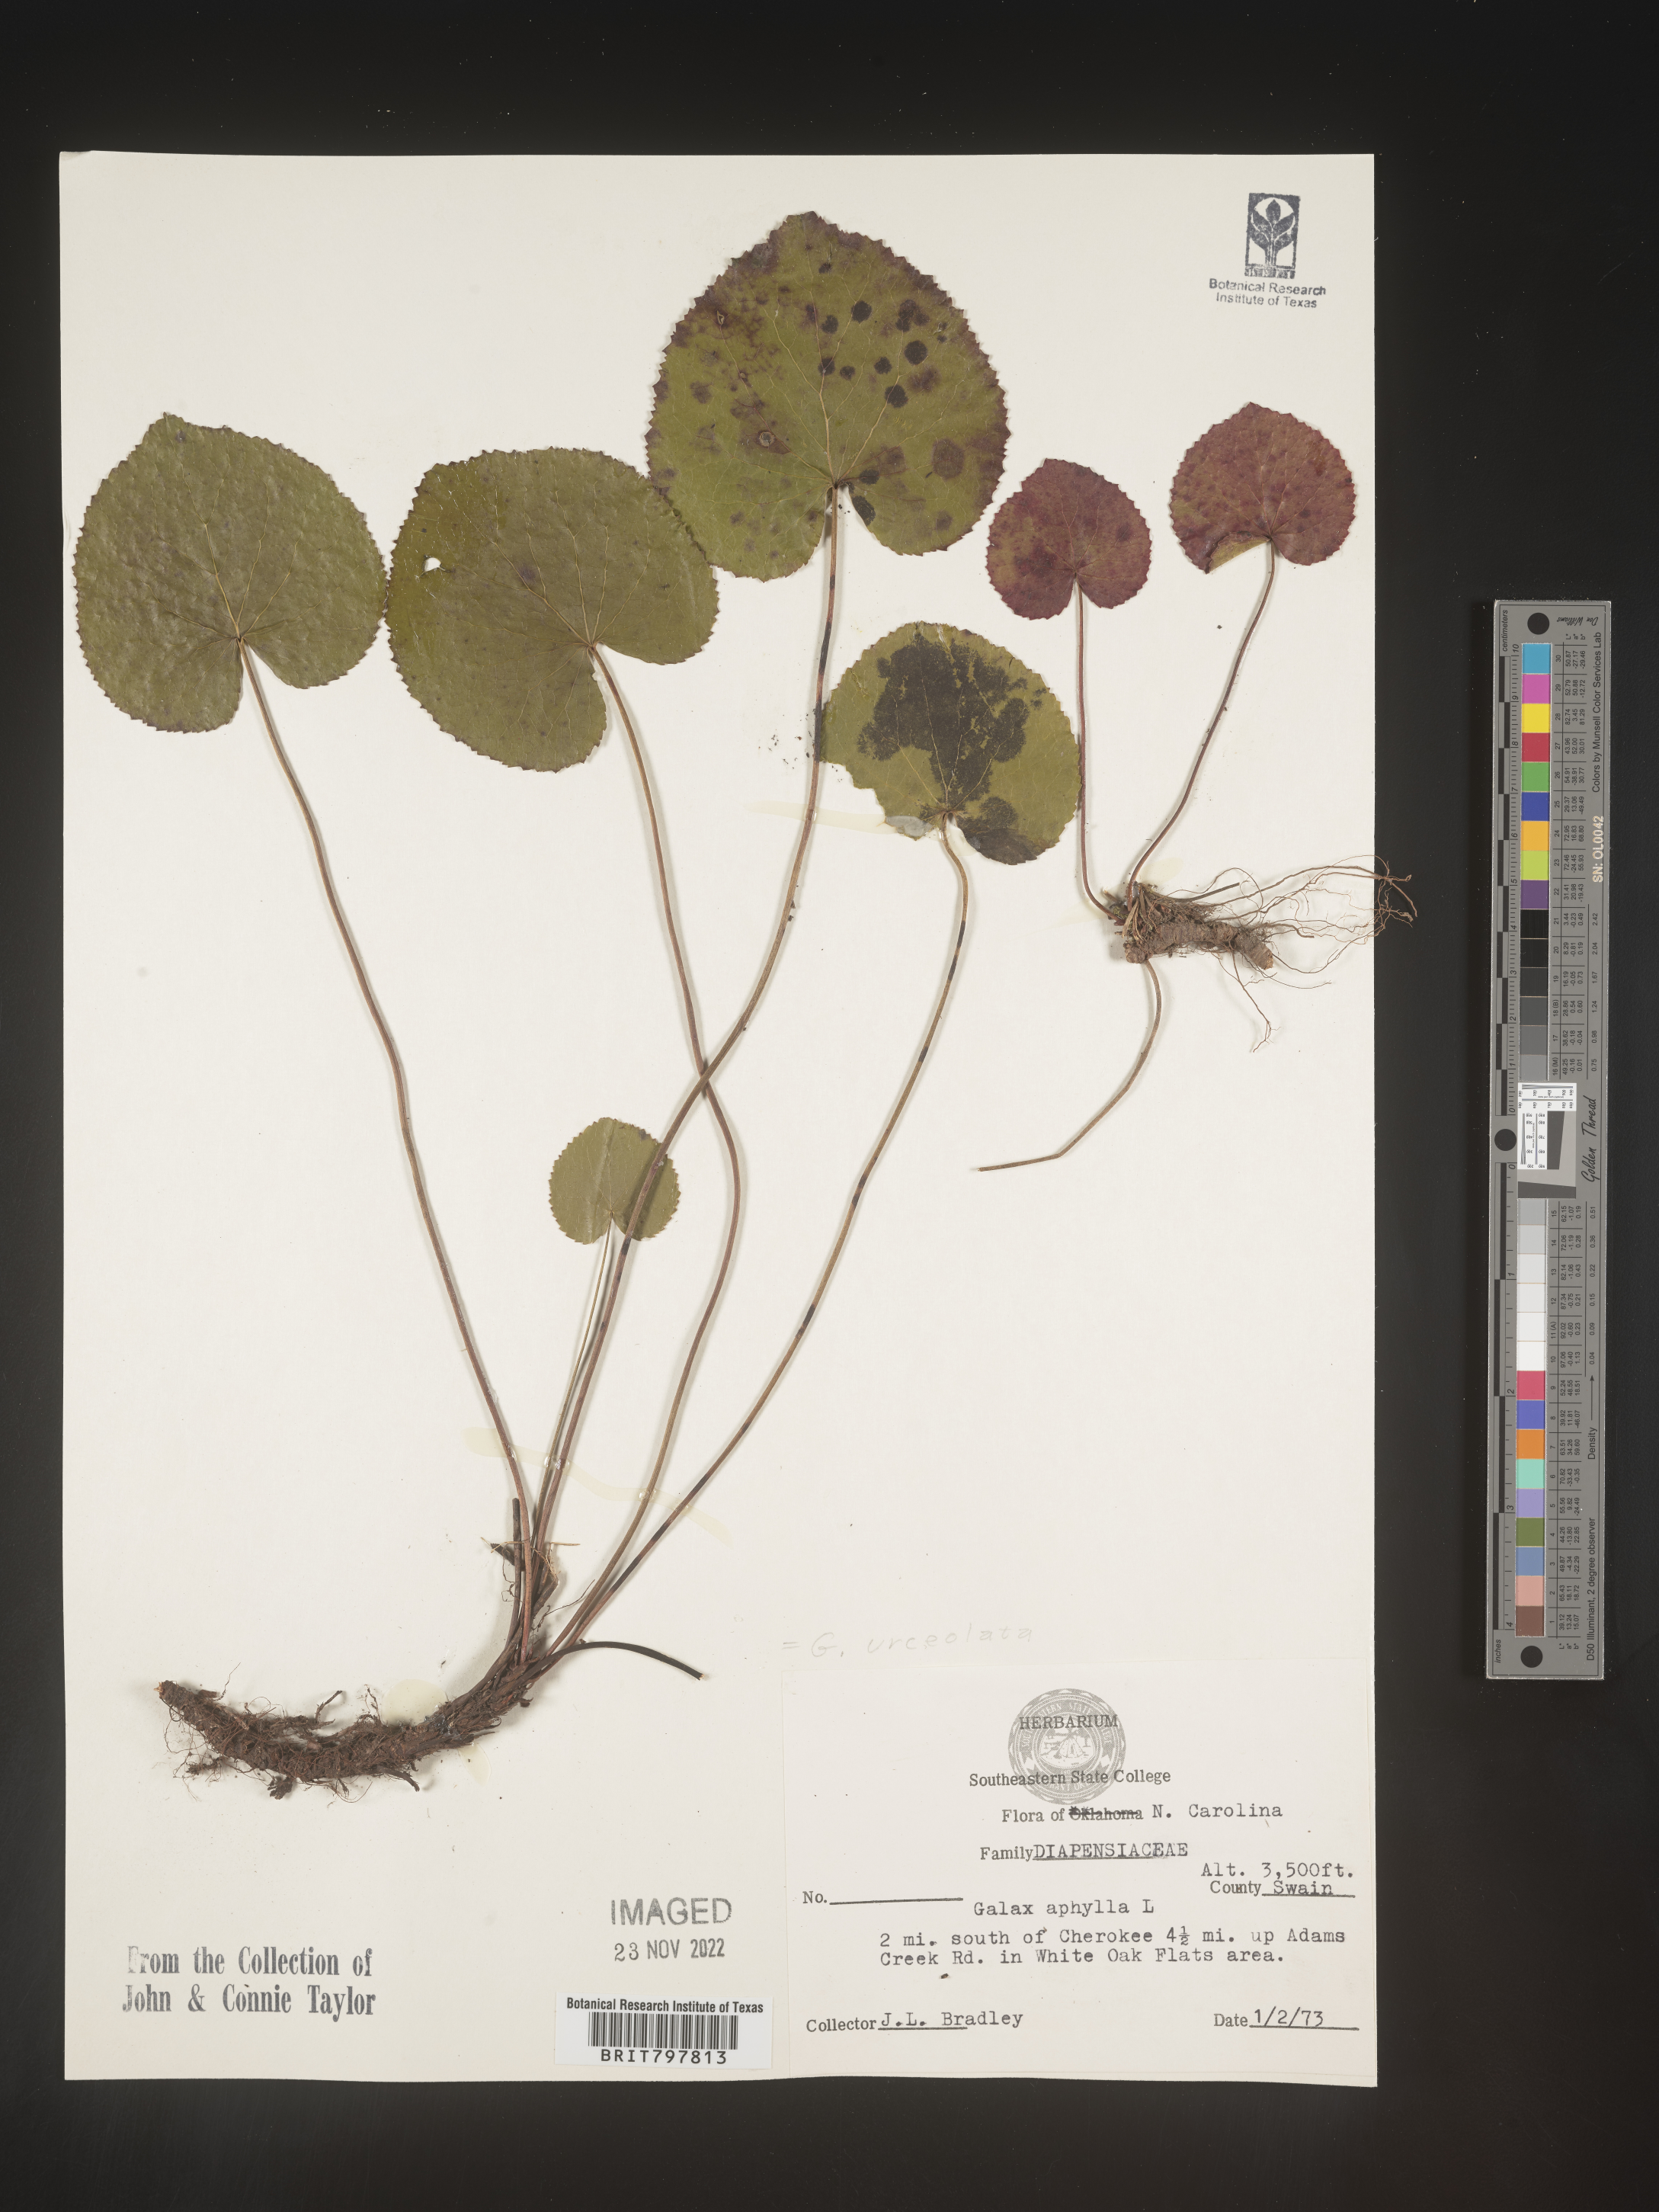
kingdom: Plantae
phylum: Tracheophyta
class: Magnoliopsida
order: Ericales
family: Diapensiaceae
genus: Galax
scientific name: Galax
